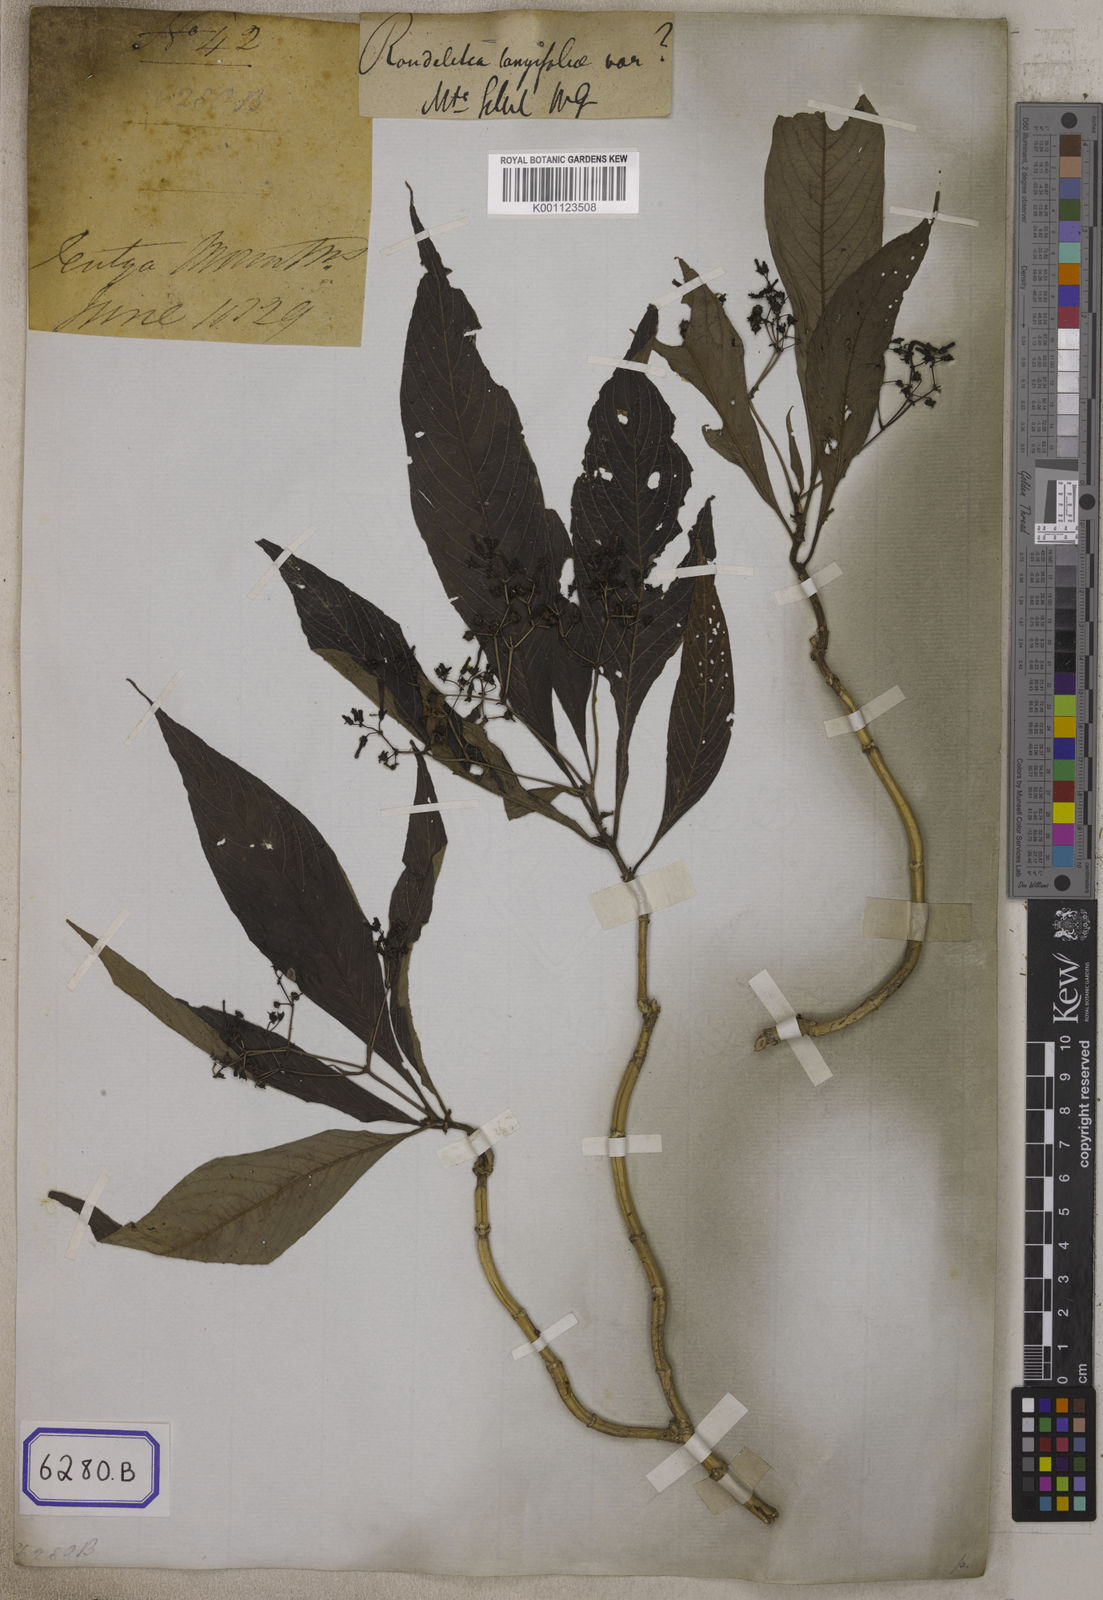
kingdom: Plantae
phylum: Tracheophyta
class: Magnoliopsida
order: Gentianales
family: Rubiaceae
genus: Adenosacme
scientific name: Adenosacme
